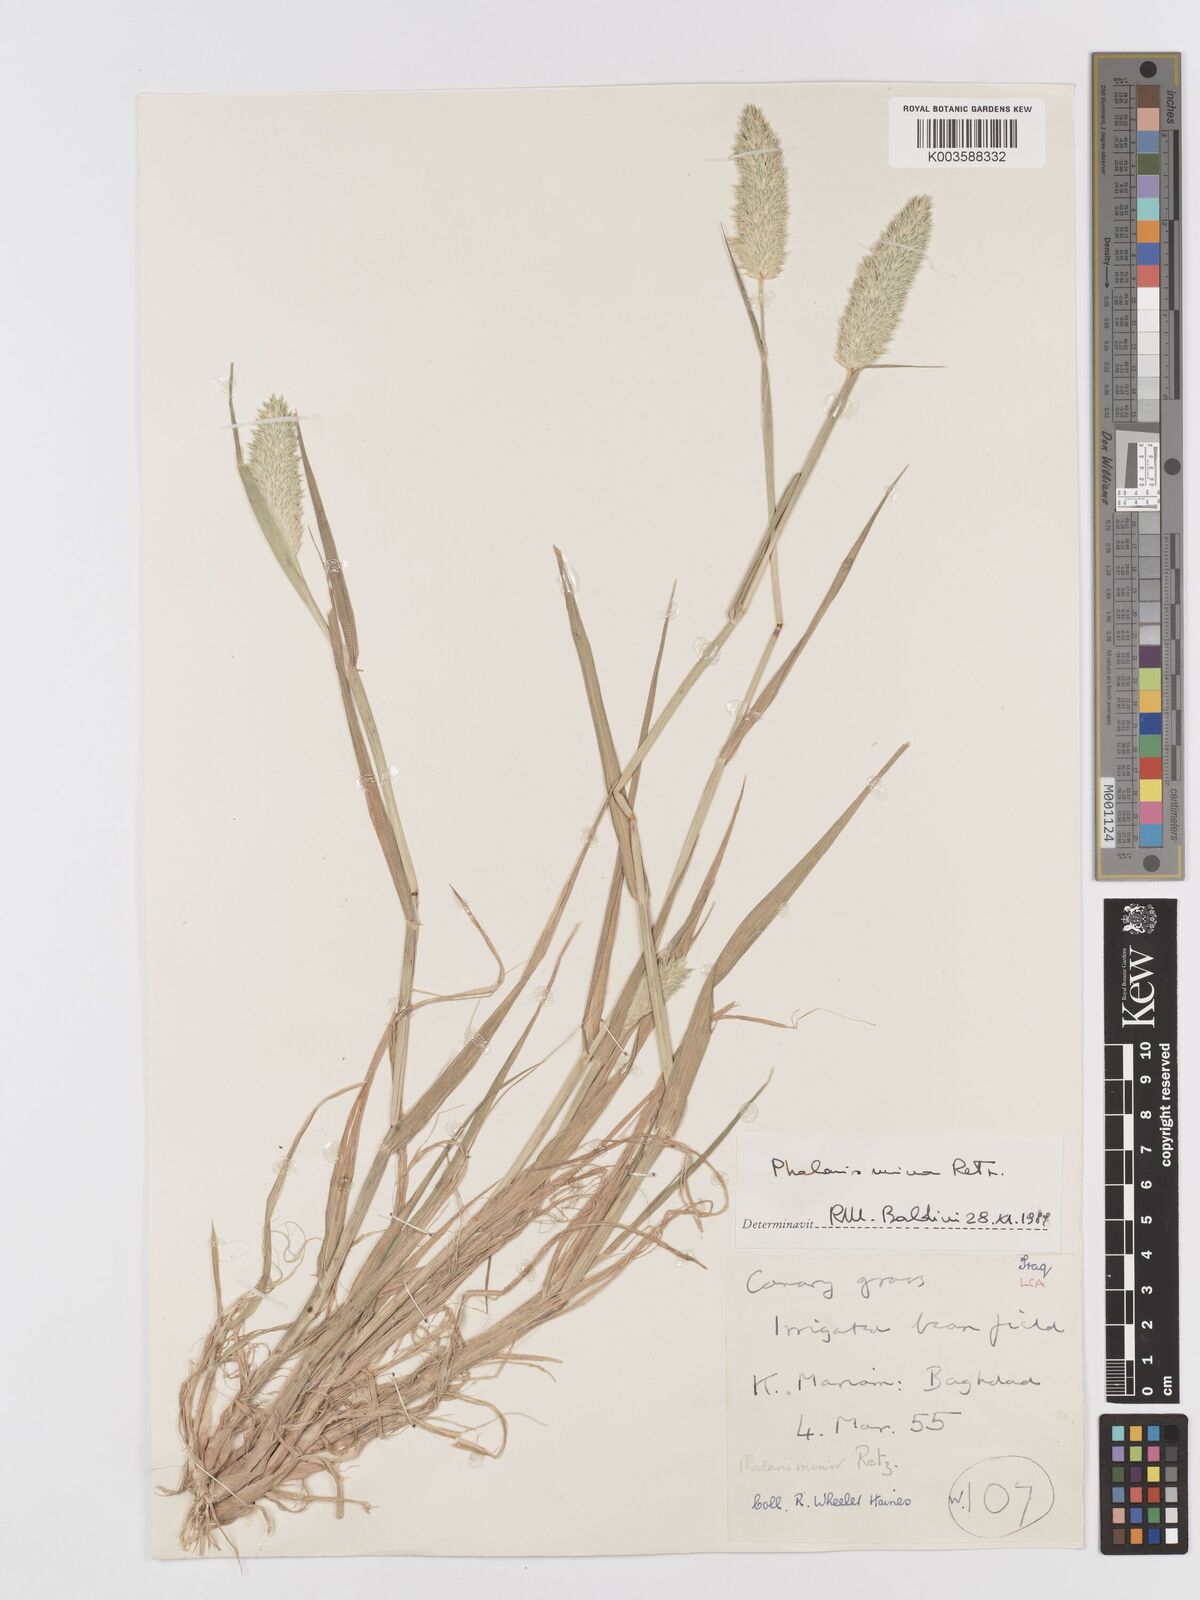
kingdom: Plantae
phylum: Tracheophyta
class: Liliopsida
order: Poales
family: Poaceae
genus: Phalaris
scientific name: Phalaris minor
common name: Littleseed canarygrass
